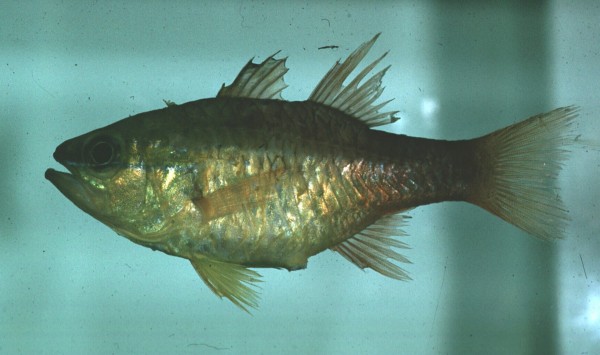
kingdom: Animalia
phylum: Chordata
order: Perciformes
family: Apogonidae
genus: Ostorhinchus
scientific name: Ostorhinchus apogonoides
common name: Goldbelly cardinalfish
